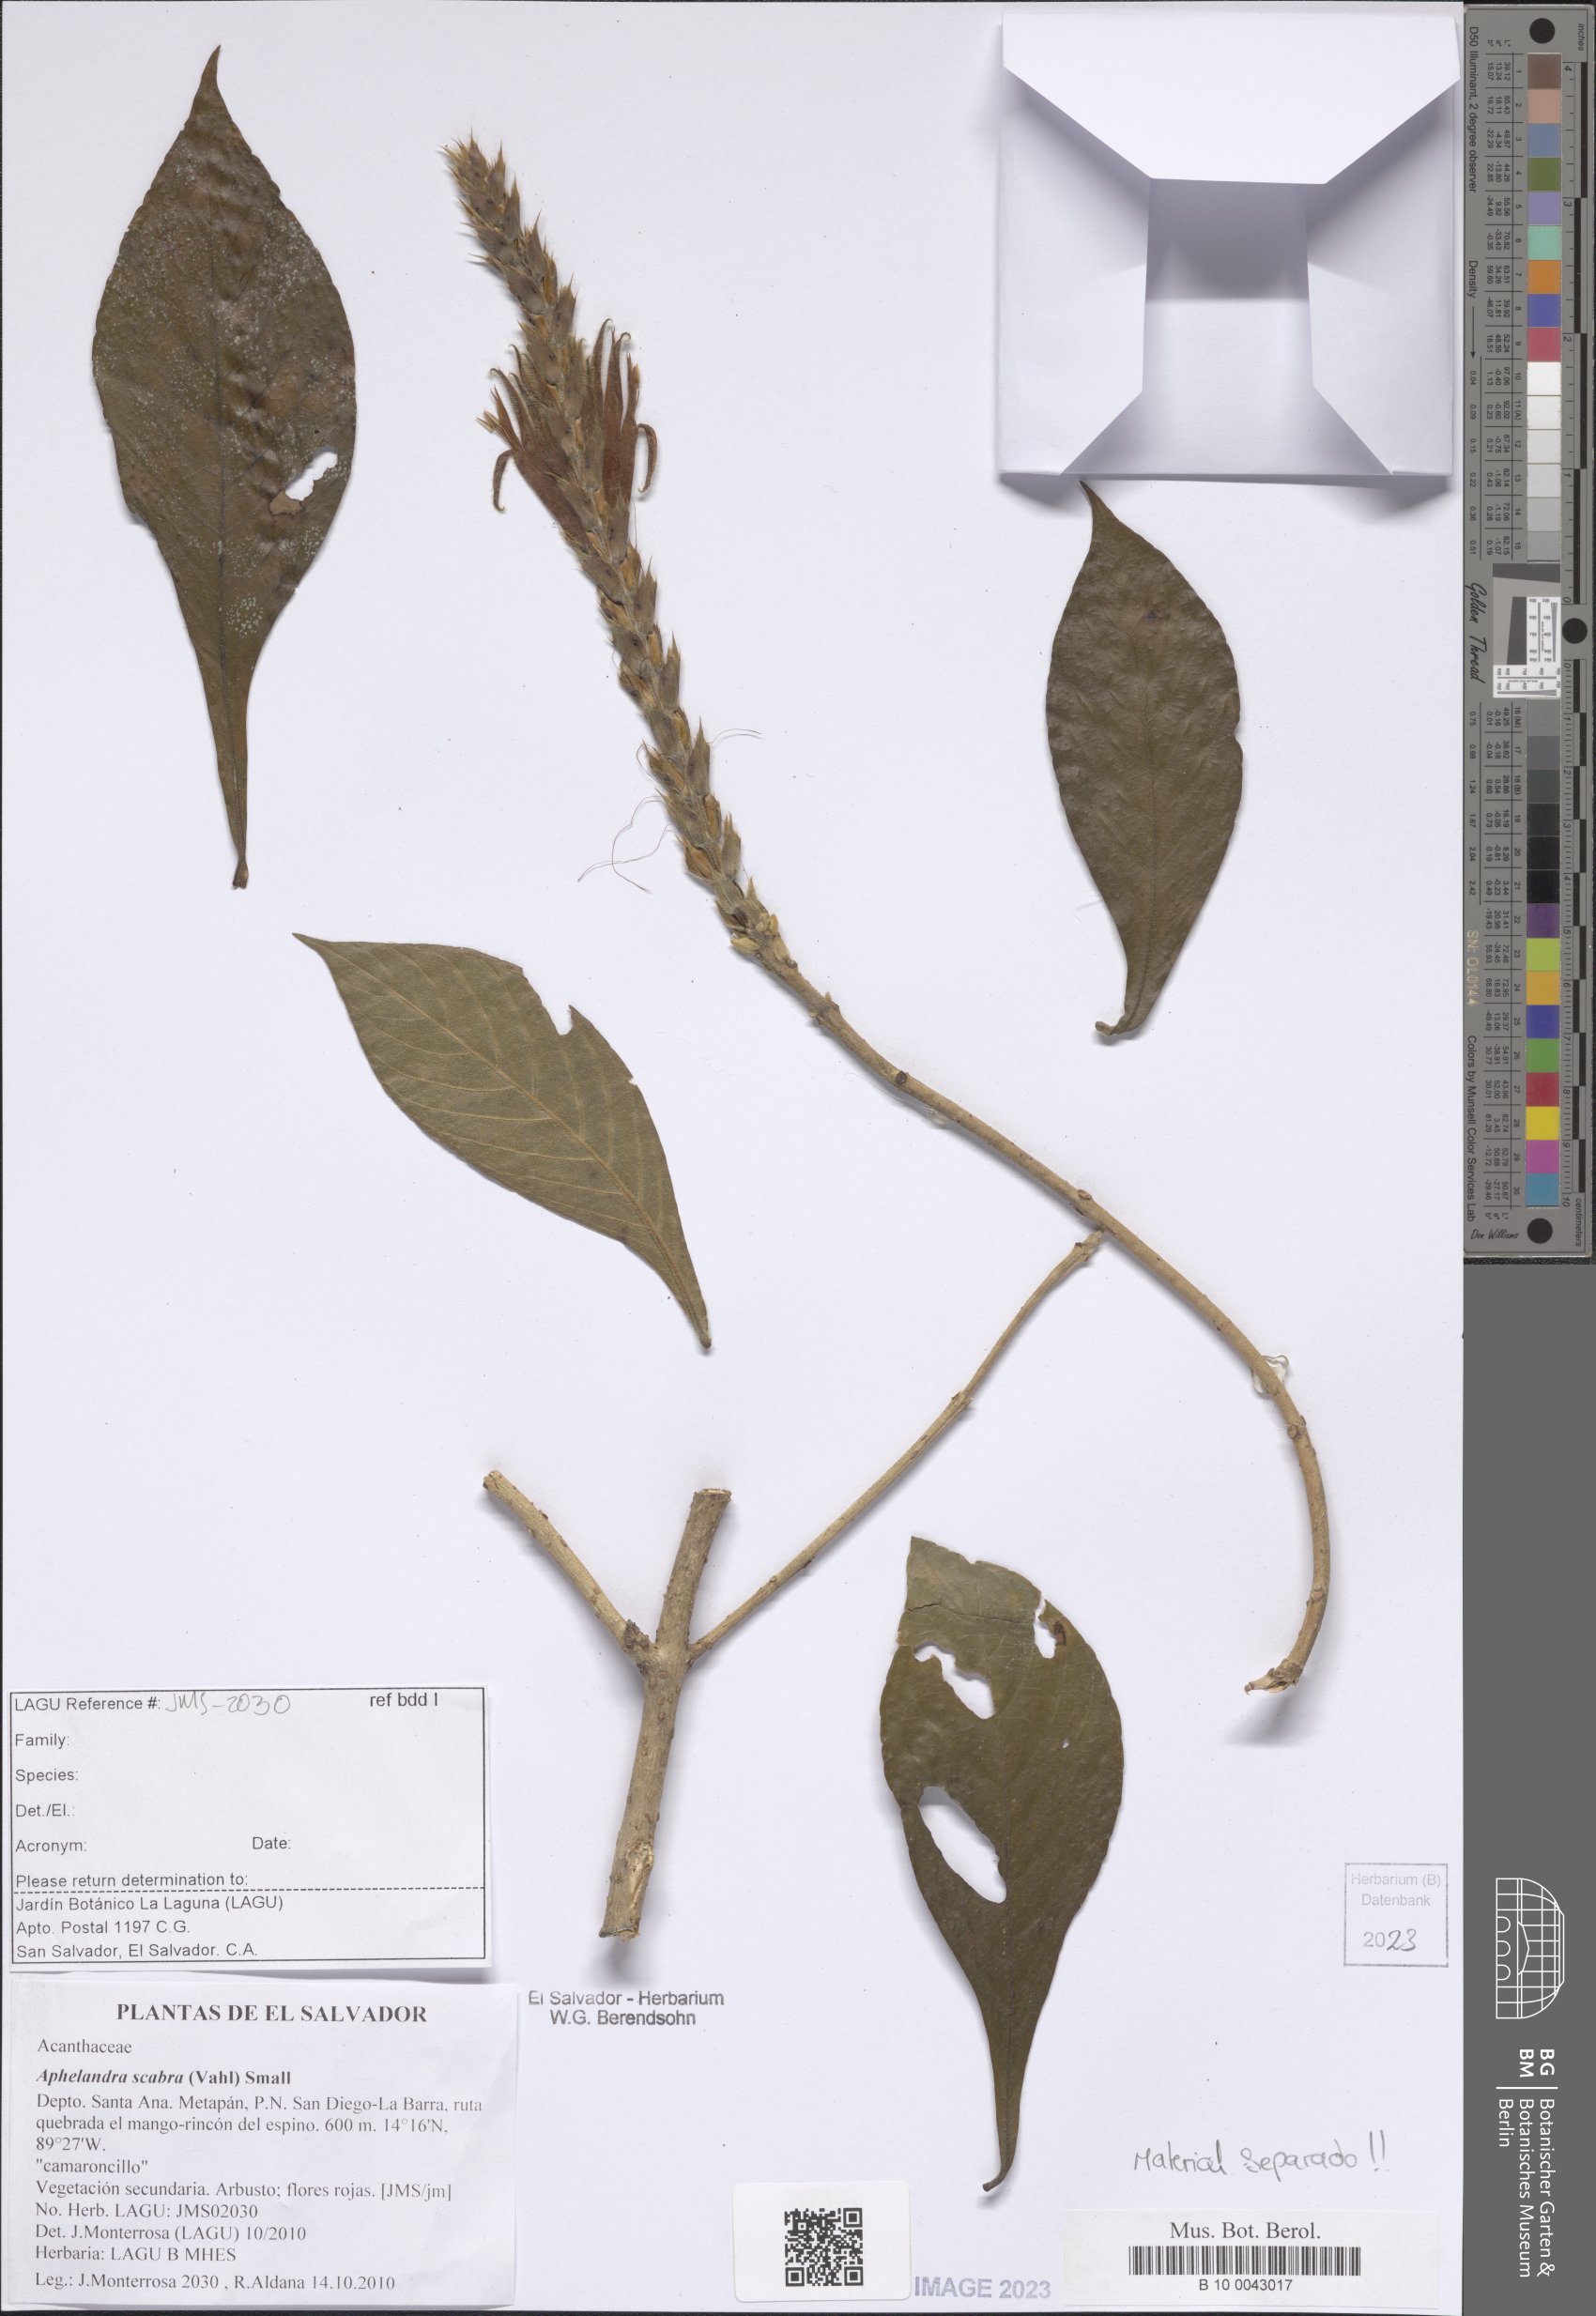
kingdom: Plantae
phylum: Tracheophyta
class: Magnoliopsida
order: Lamiales
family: Acanthaceae
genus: Aphelandra
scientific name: Aphelandra scabra
